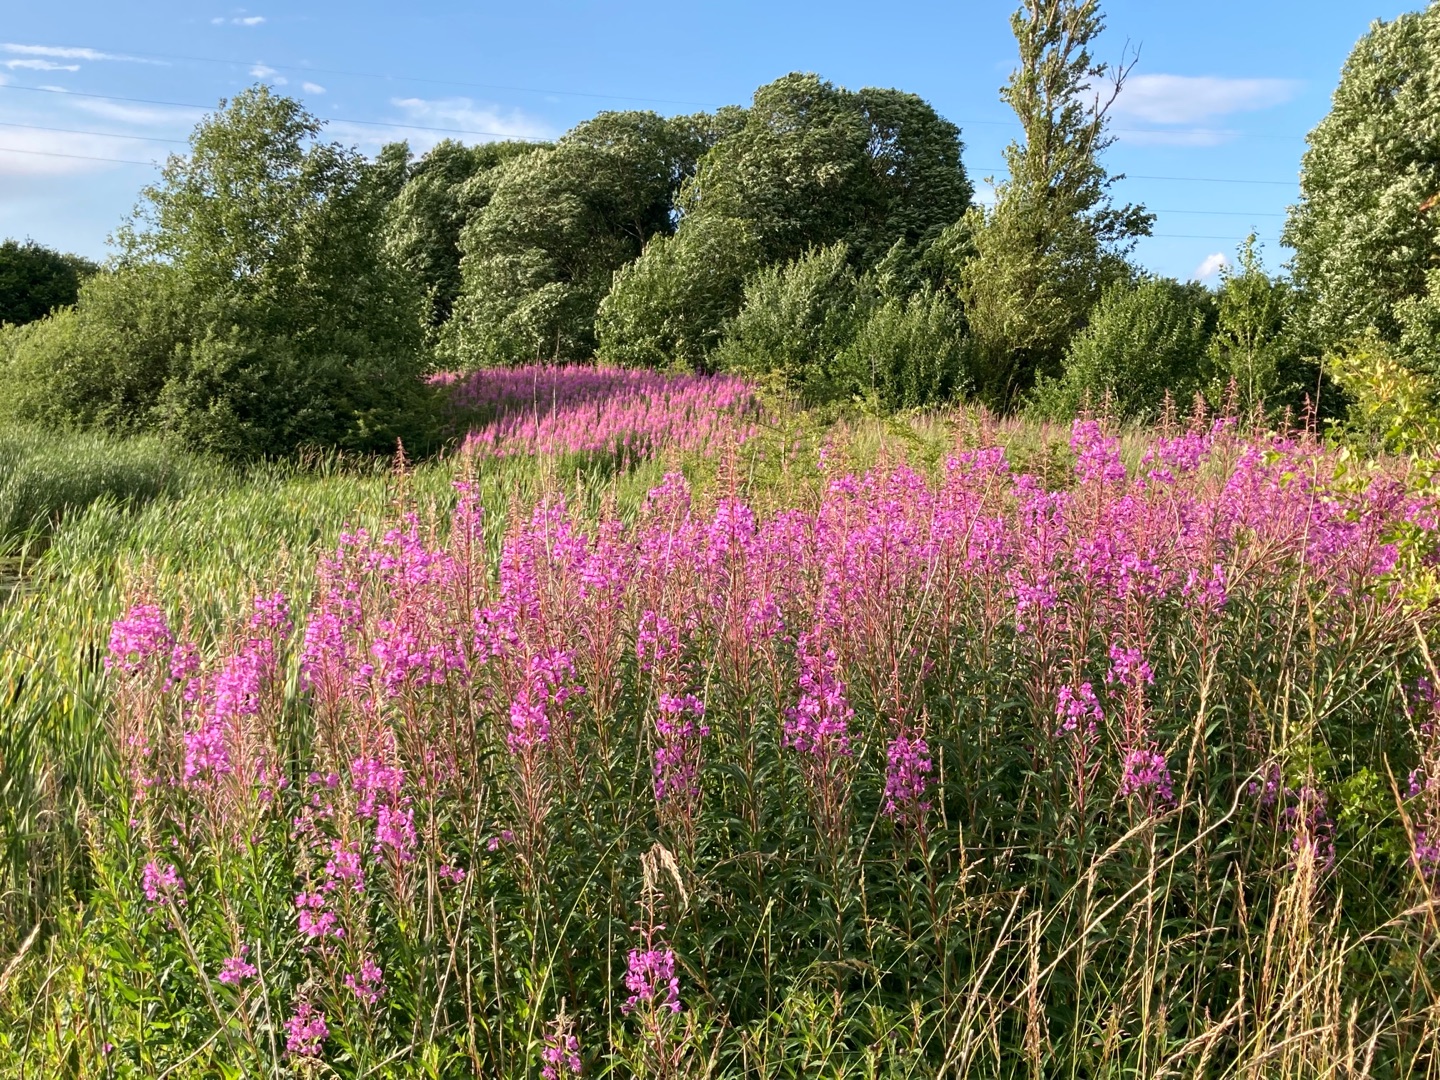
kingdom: Plantae
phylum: Tracheophyta
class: Magnoliopsida
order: Myrtales
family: Onagraceae
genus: Chamaenerion
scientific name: Chamaenerion angustifolium
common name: Gederams
